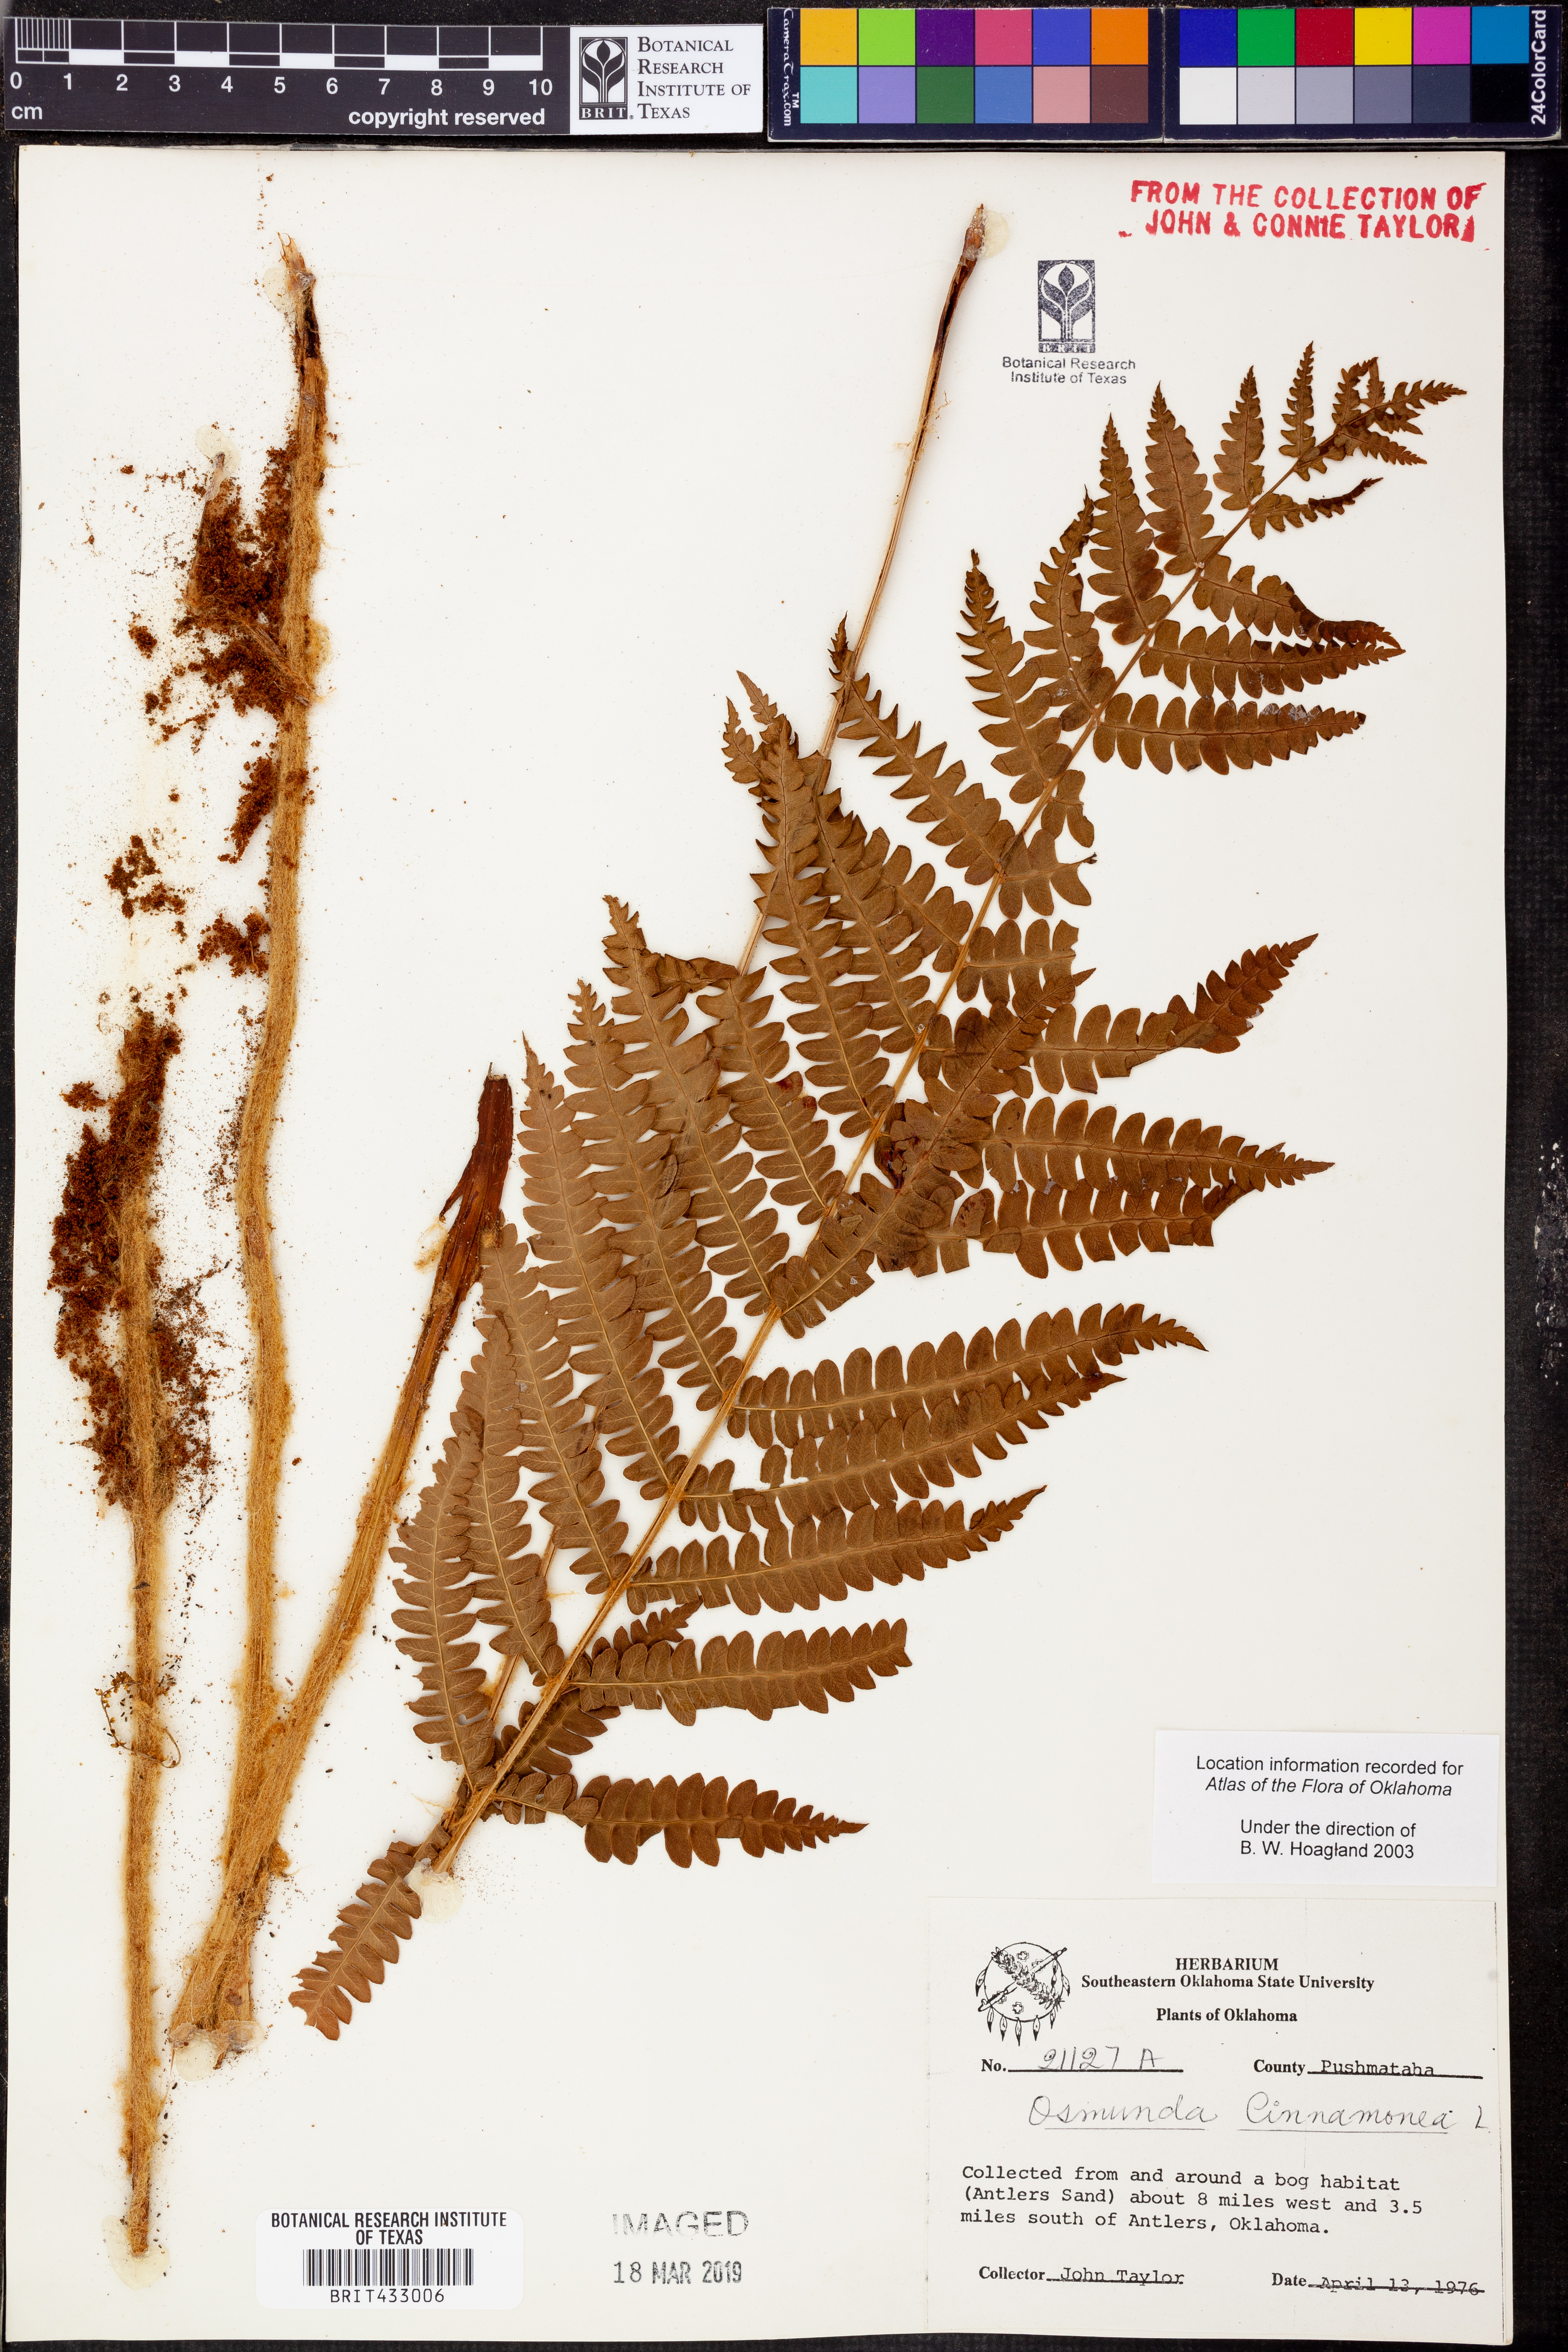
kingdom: Plantae
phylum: Tracheophyta
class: Polypodiopsida
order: Osmundales
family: Osmundaceae
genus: Osmundastrum
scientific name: Osmundastrum cinnamomeum
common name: Cinnamon fern
